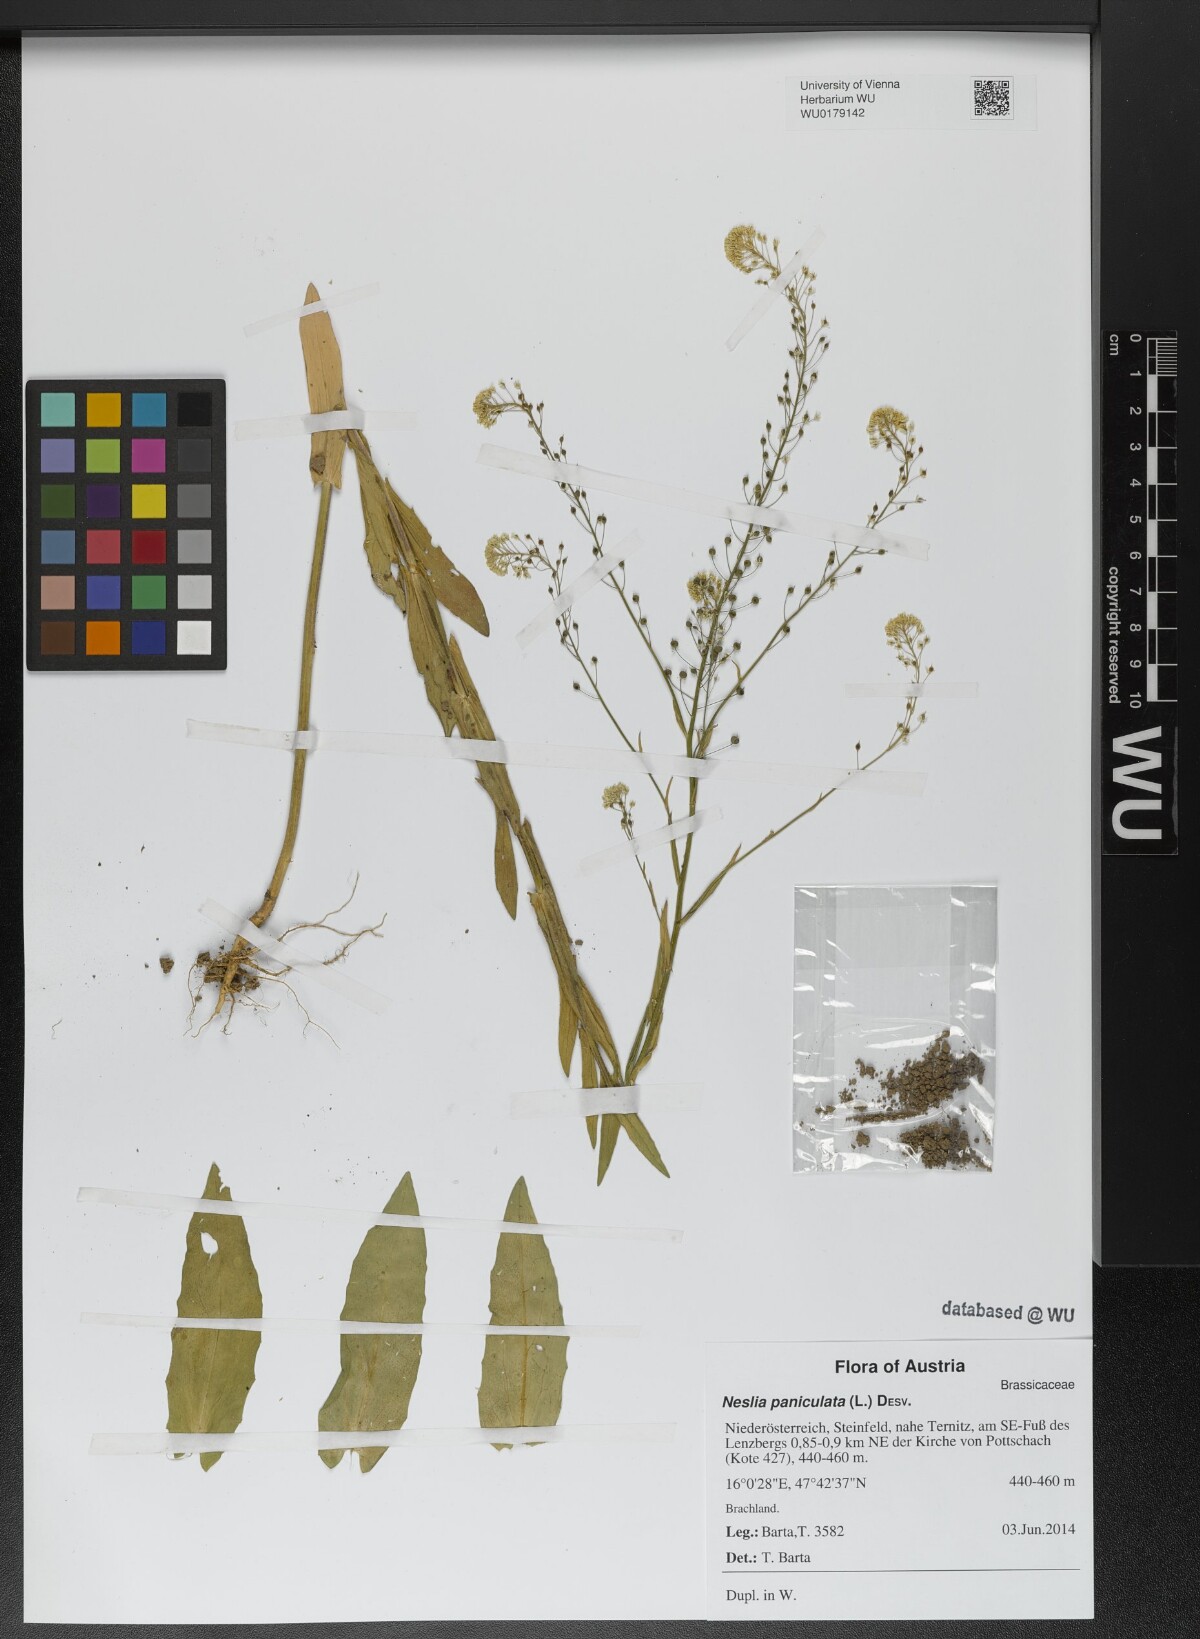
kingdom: Plantae
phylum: Tracheophyta
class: Magnoliopsida
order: Brassicales
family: Brassicaceae
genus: Neslia
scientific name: Neslia paniculata
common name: Ball mustard
